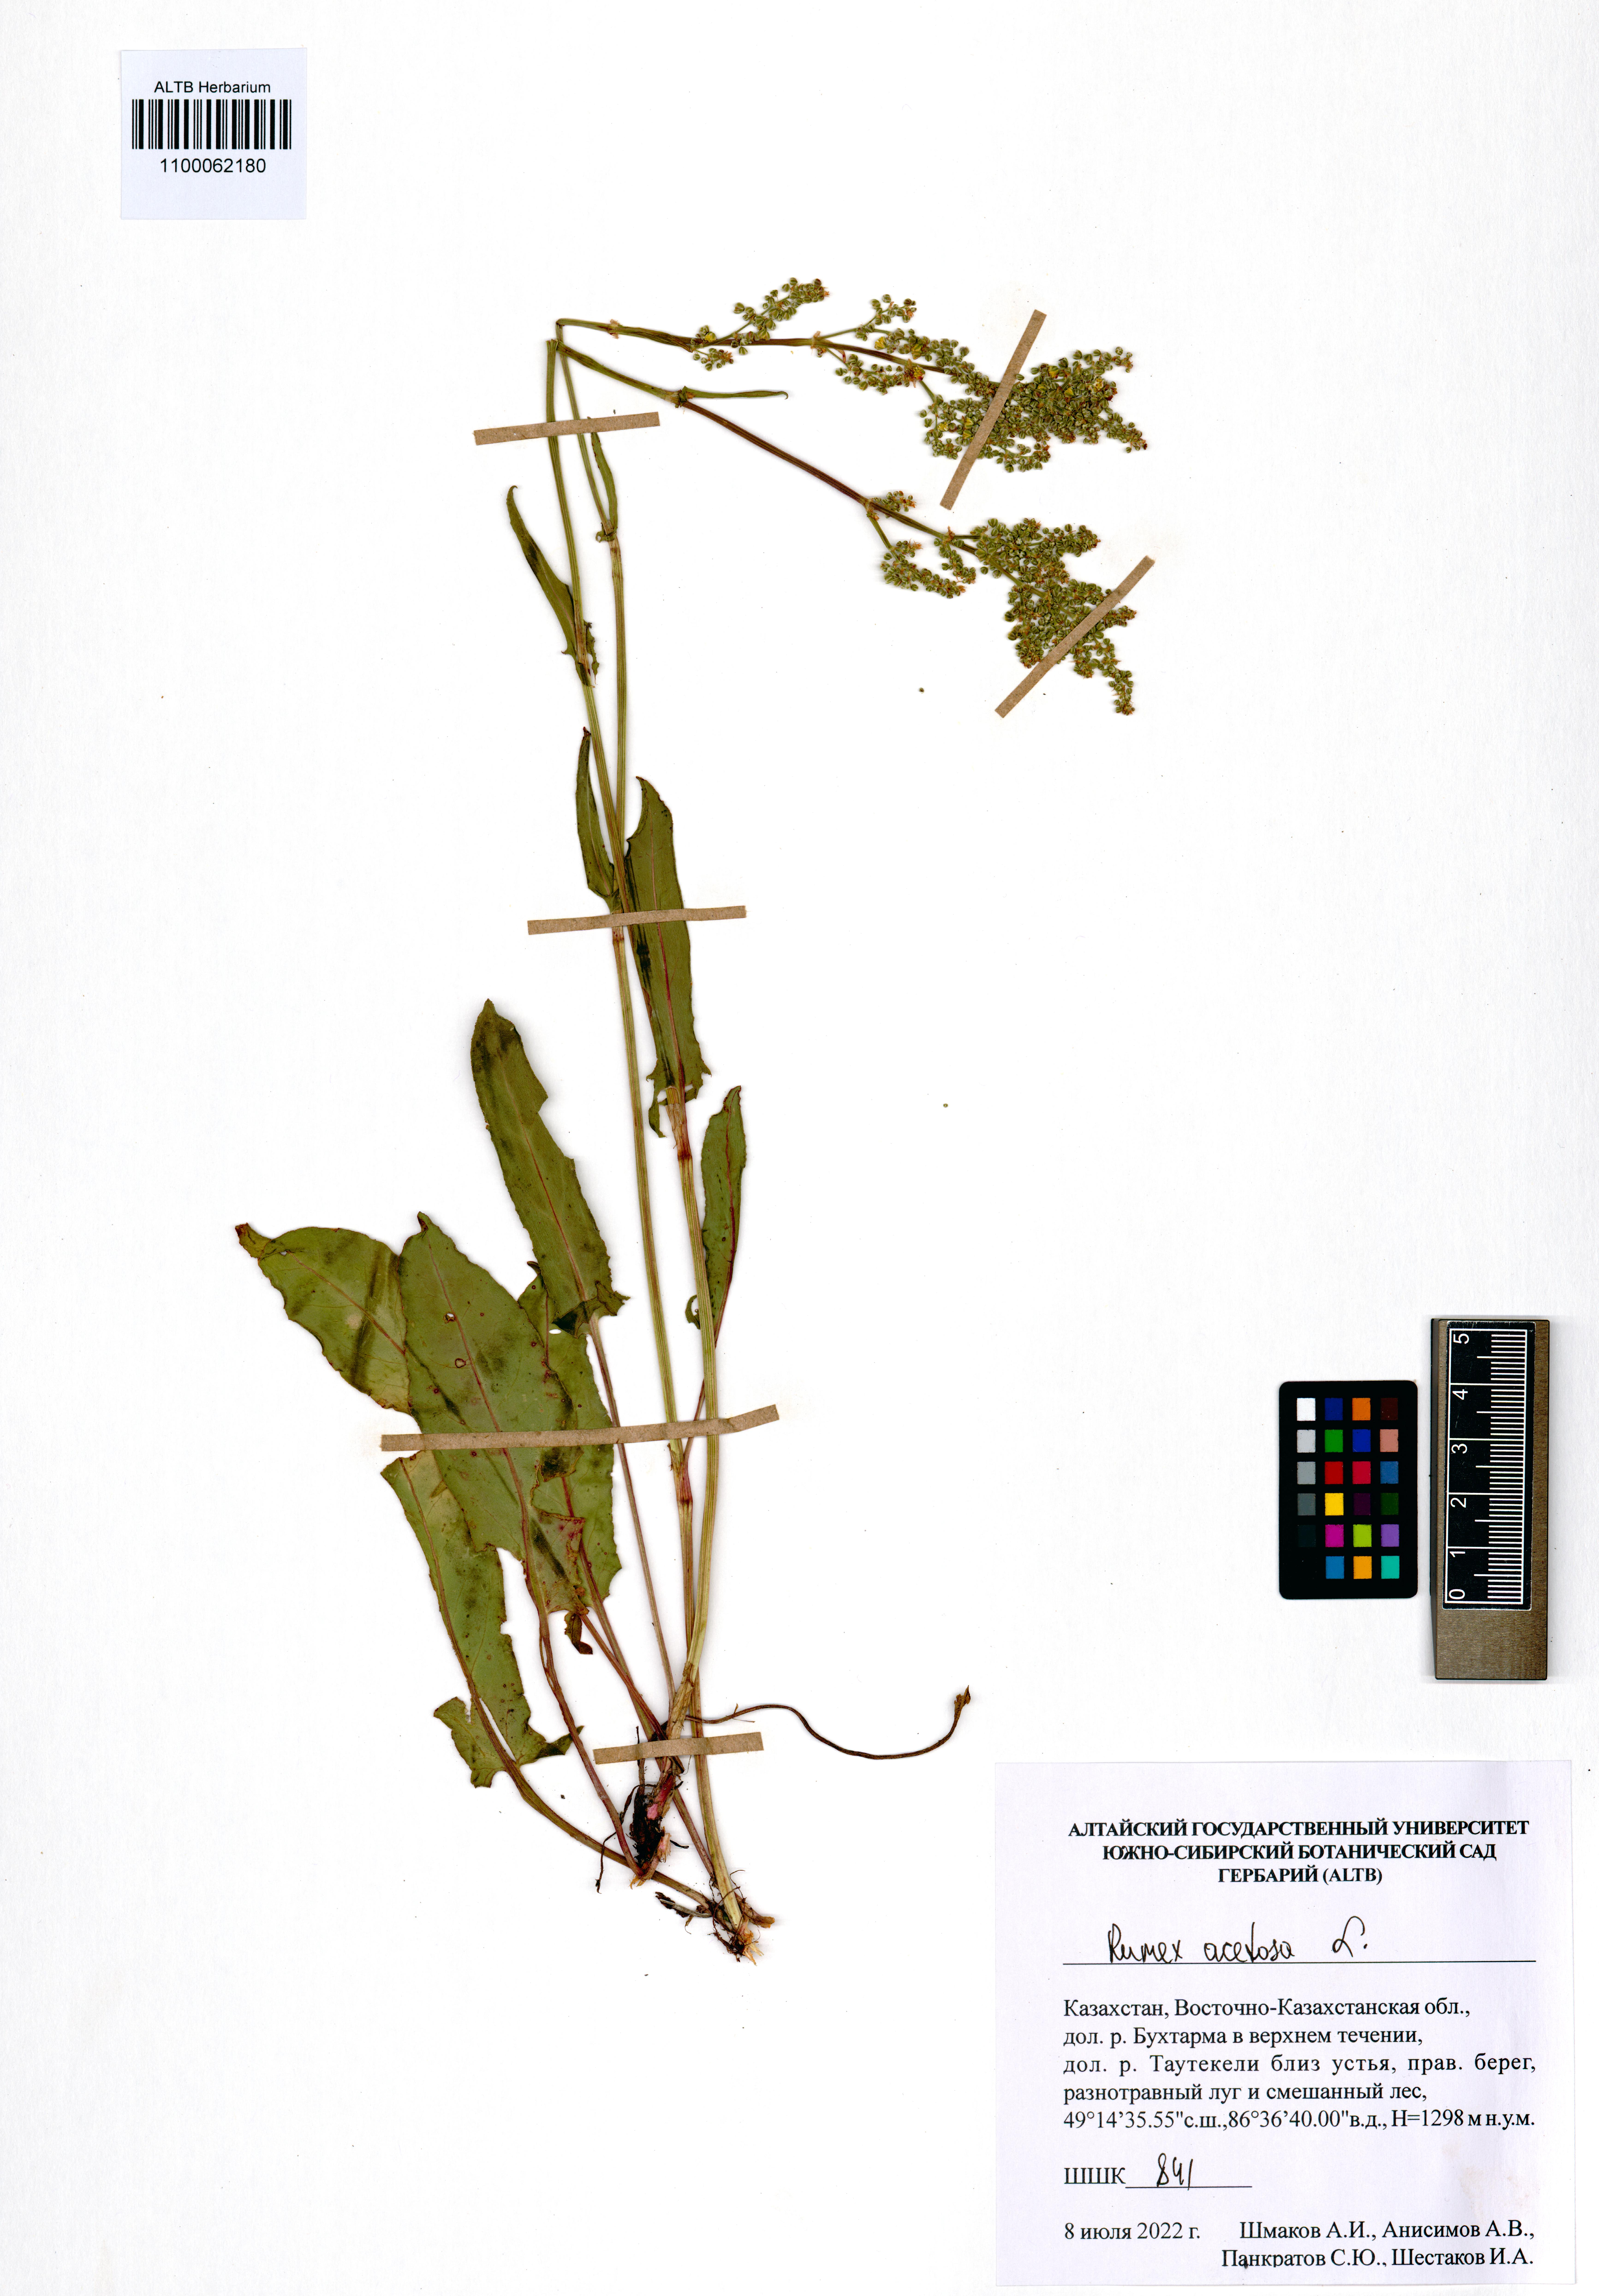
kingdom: Plantae
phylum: Tracheophyta
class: Magnoliopsida
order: Caryophyllales
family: Polygonaceae
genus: Rumex
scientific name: Rumex acetosa
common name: Garden sorrel
